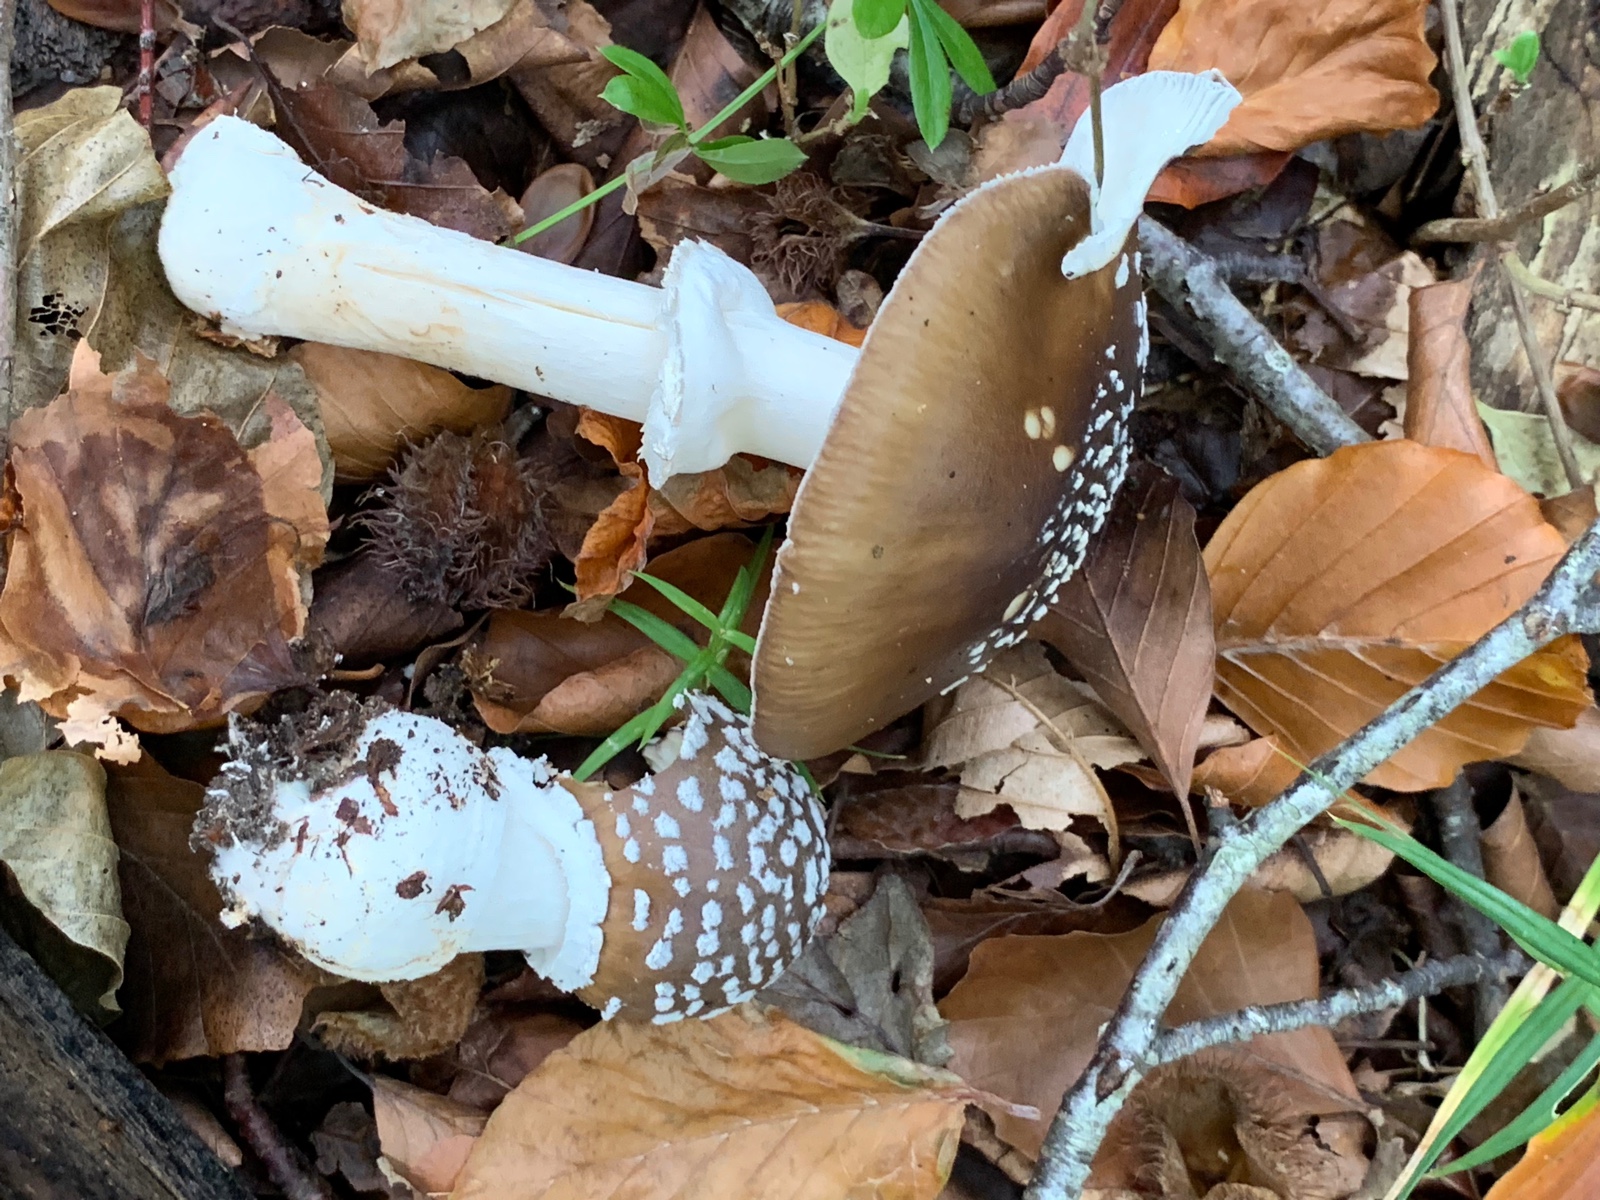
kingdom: Fungi
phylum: Basidiomycota
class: Agaricomycetes
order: Agaricales
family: Amanitaceae
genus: Amanita
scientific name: Amanita pantherina
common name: panter-fluesvamp
